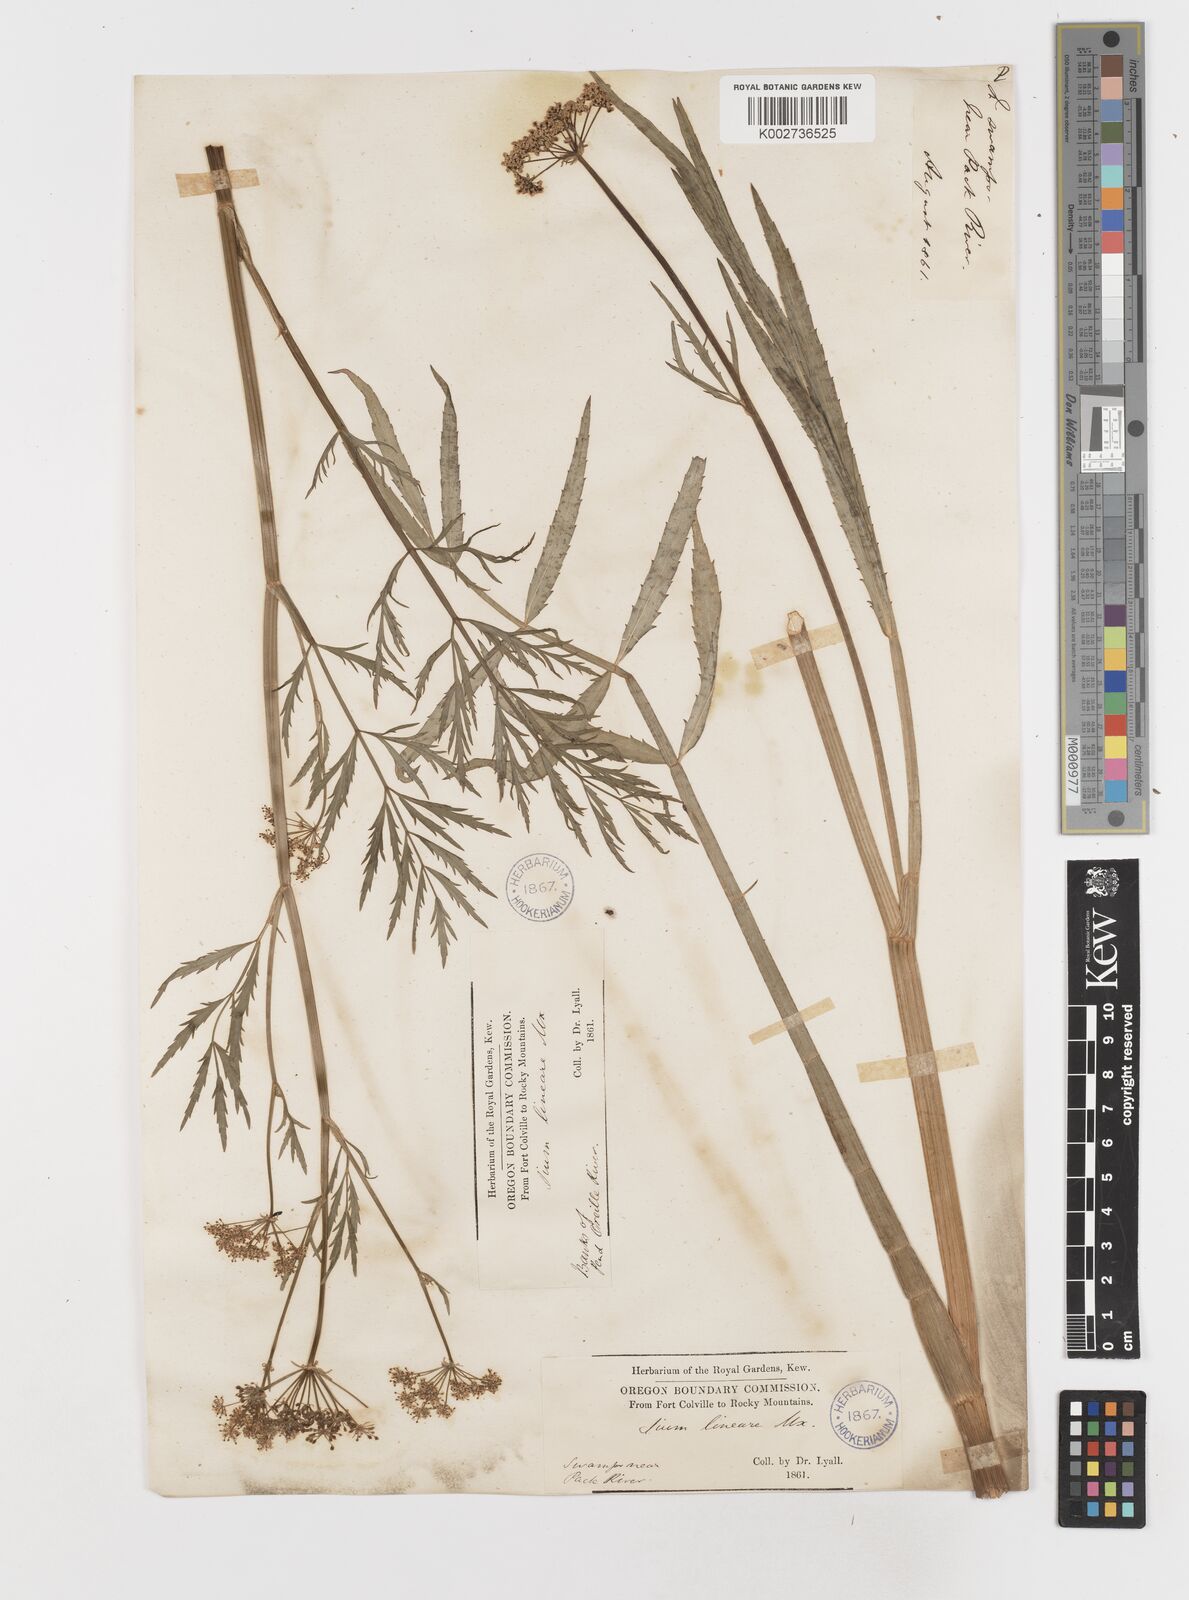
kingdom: Plantae
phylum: Tracheophyta
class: Magnoliopsida
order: Apiales
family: Apiaceae
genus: Sium
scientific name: Sium suave
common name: Hemlock water-parsnip
